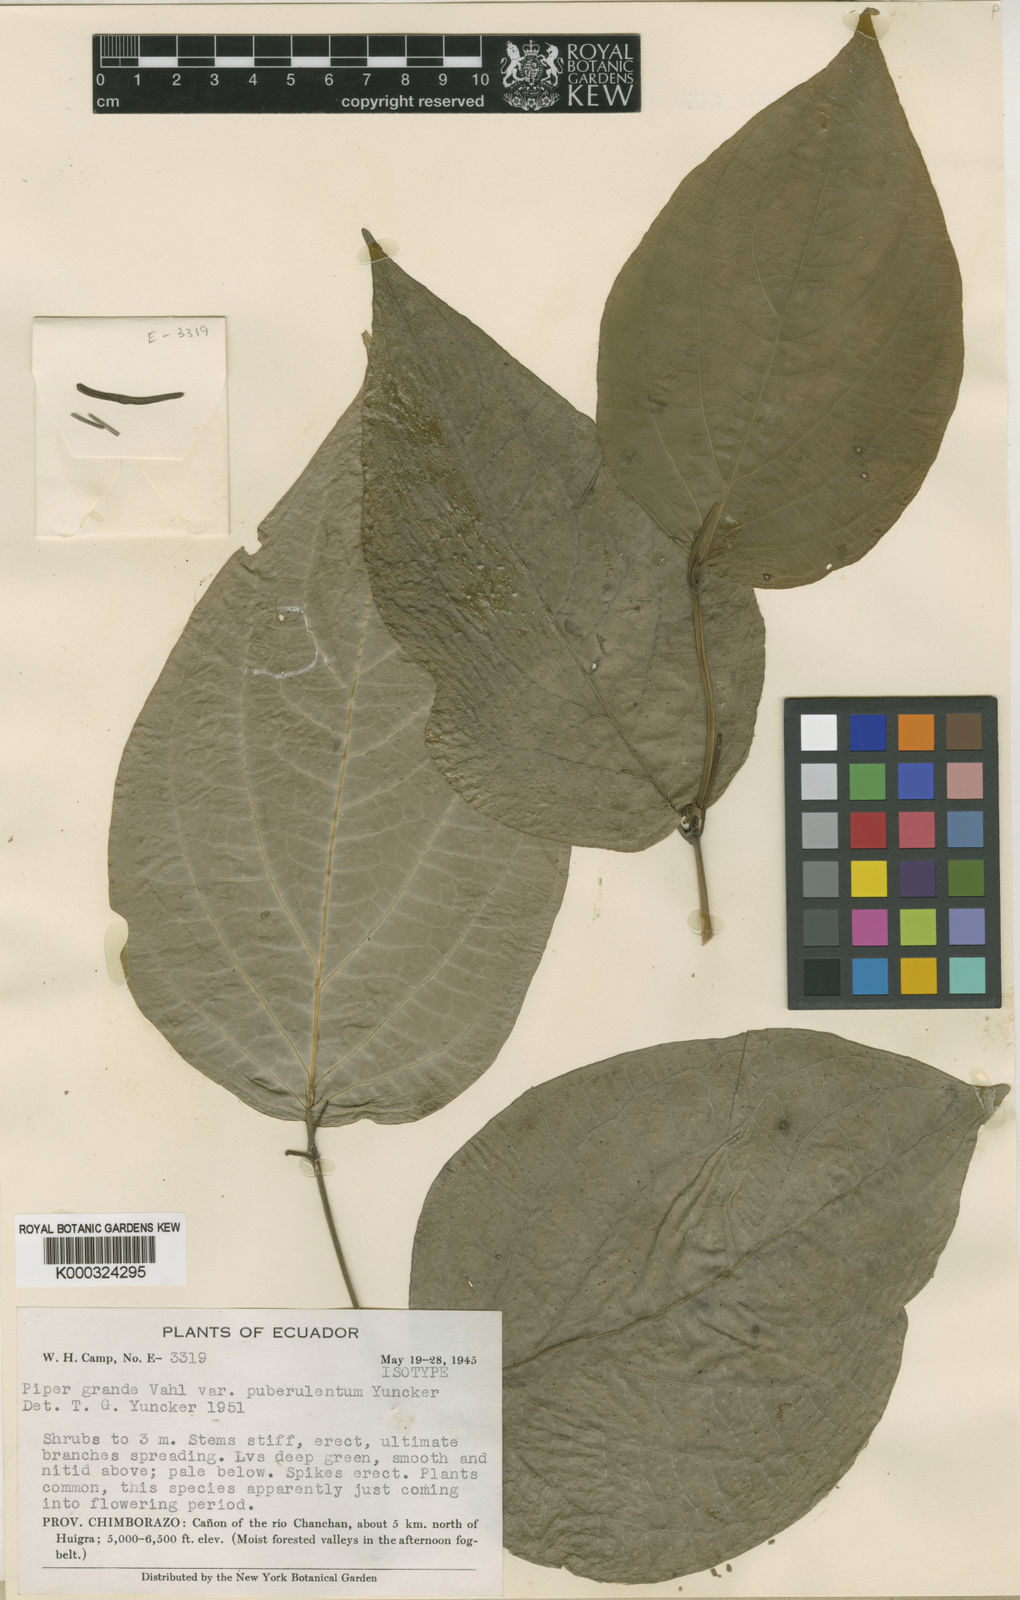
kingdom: Plantae
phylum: Tracheophyta
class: Magnoliopsida
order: Piperales
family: Piperaceae
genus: Piper
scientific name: Piper grande
